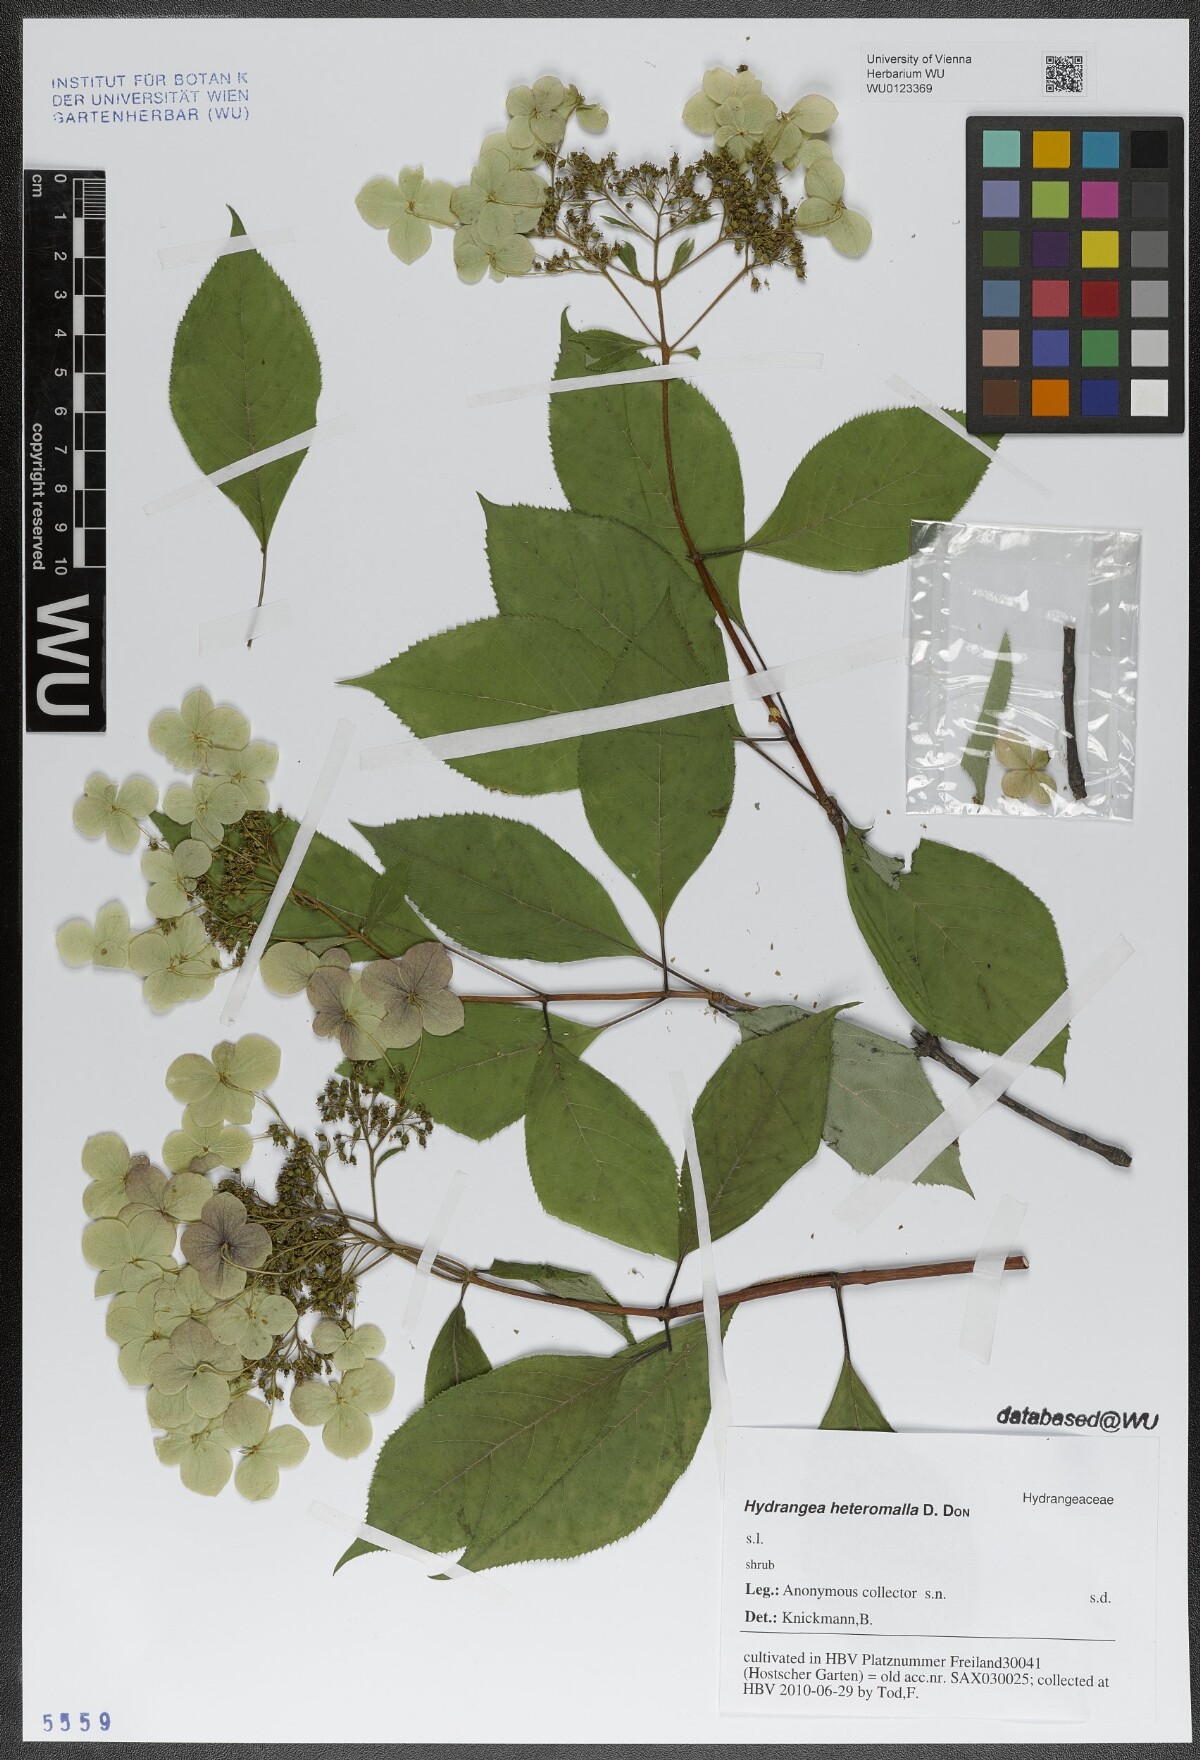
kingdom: Plantae
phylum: Tracheophyta
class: Magnoliopsida
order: Cornales
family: Hydrangeaceae
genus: Hydrangea
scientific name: Hydrangea heteromalla
